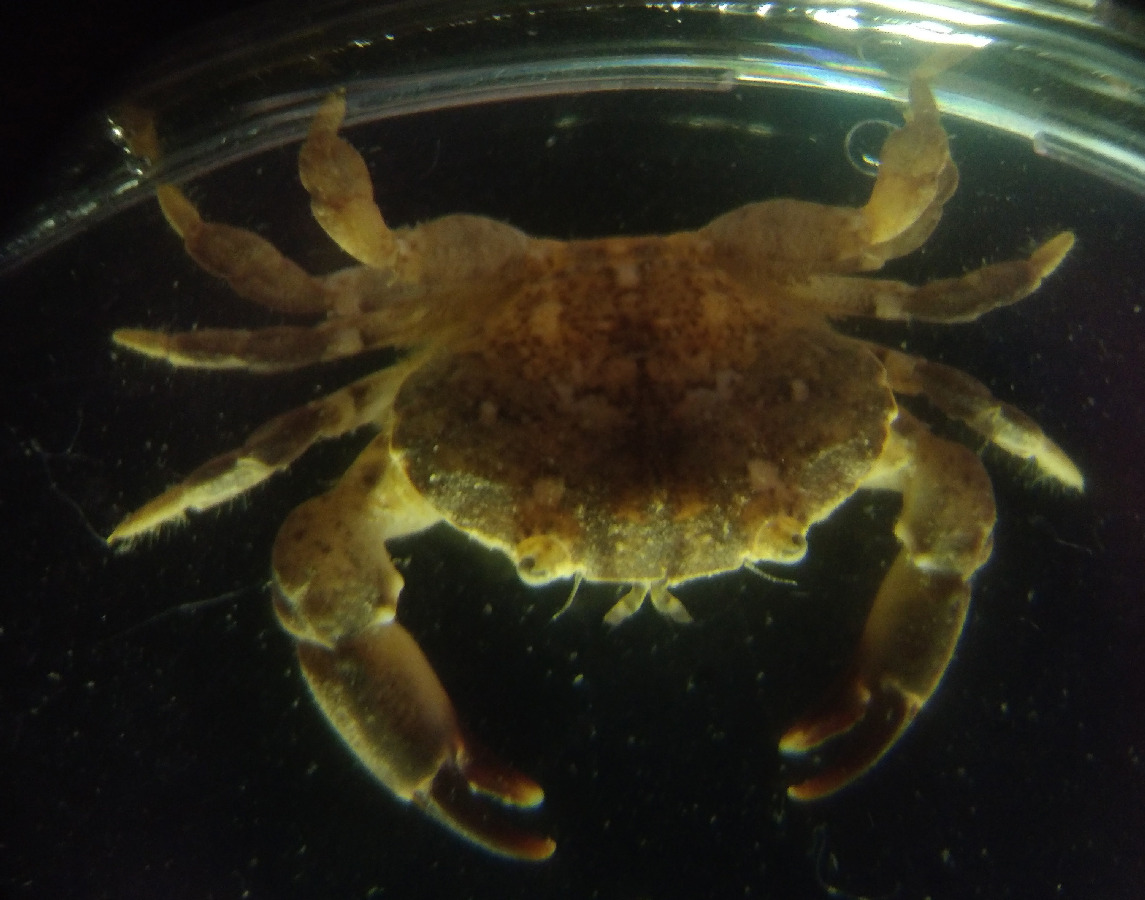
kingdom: Animalia
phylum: Arthropoda
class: Malacostraca
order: Decapoda
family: Xanthidae
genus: Xantho
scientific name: Xantho poressa
